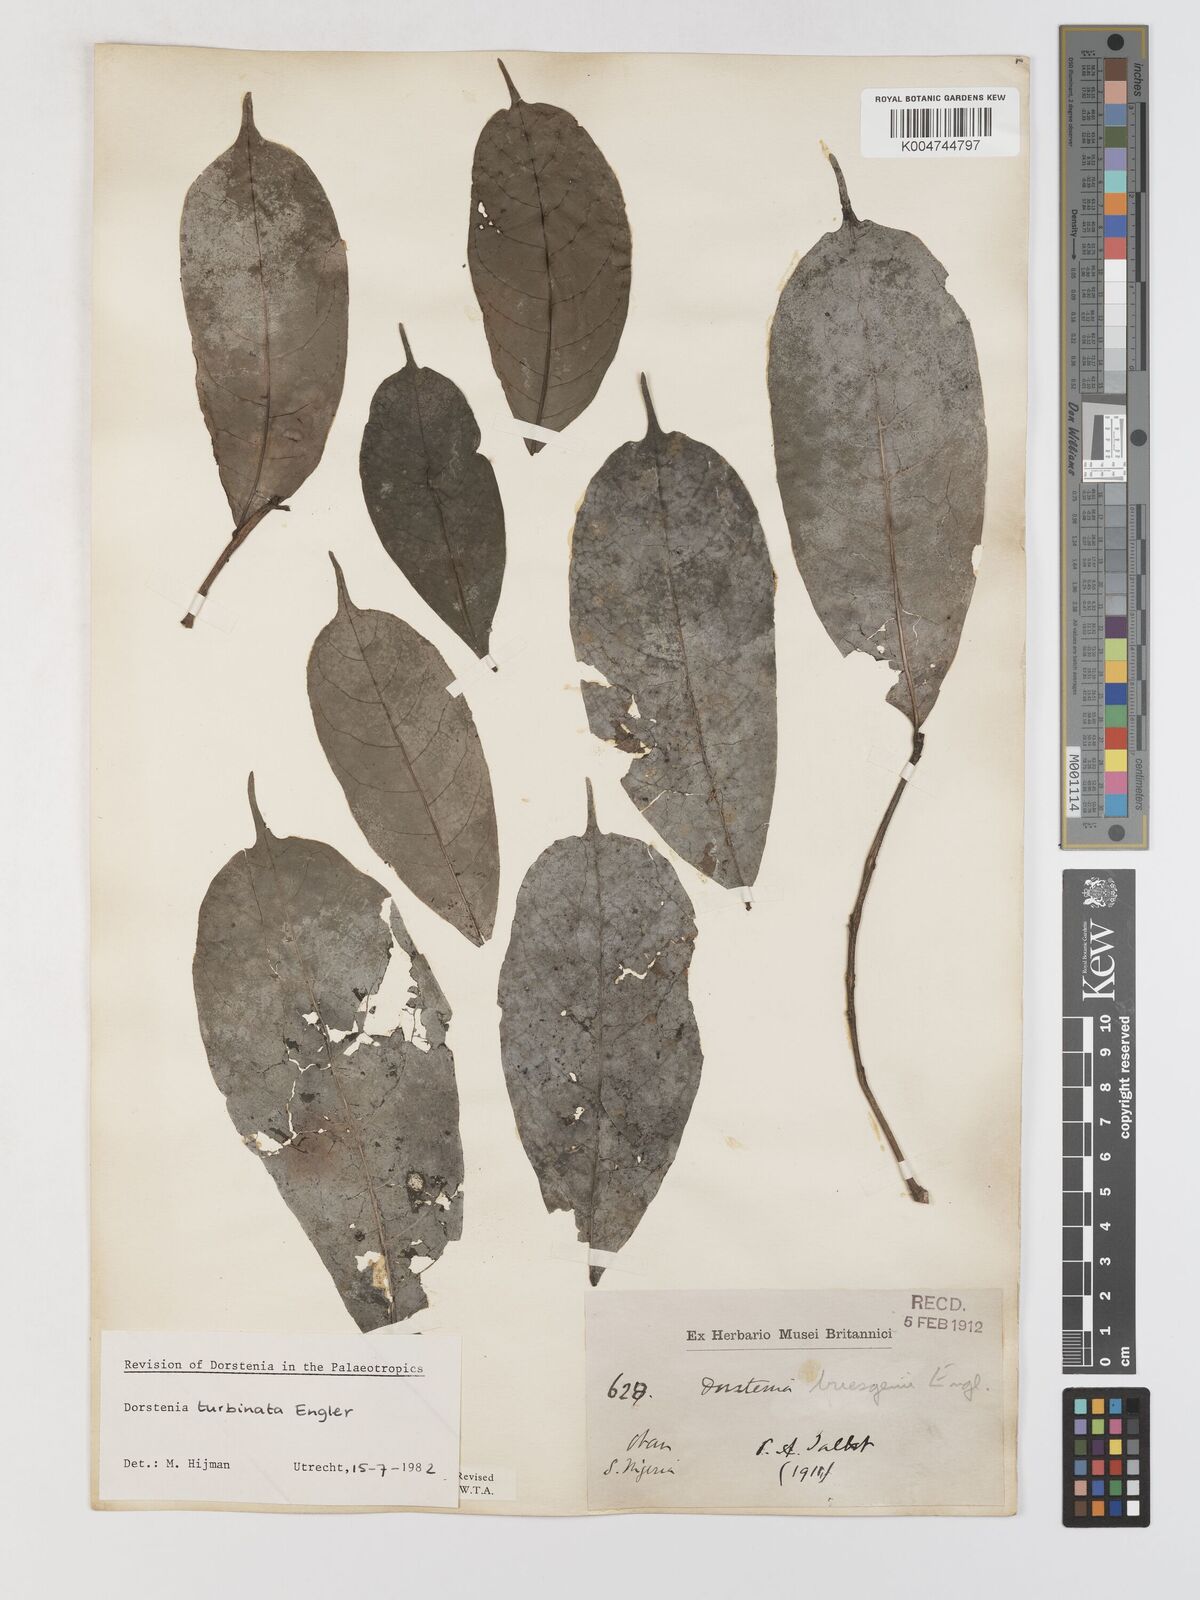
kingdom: Plantae
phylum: Tracheophyta
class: Magnoliopsida
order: Rosales
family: Moraceae
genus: Hijmania
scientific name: Hijmania turbinata
